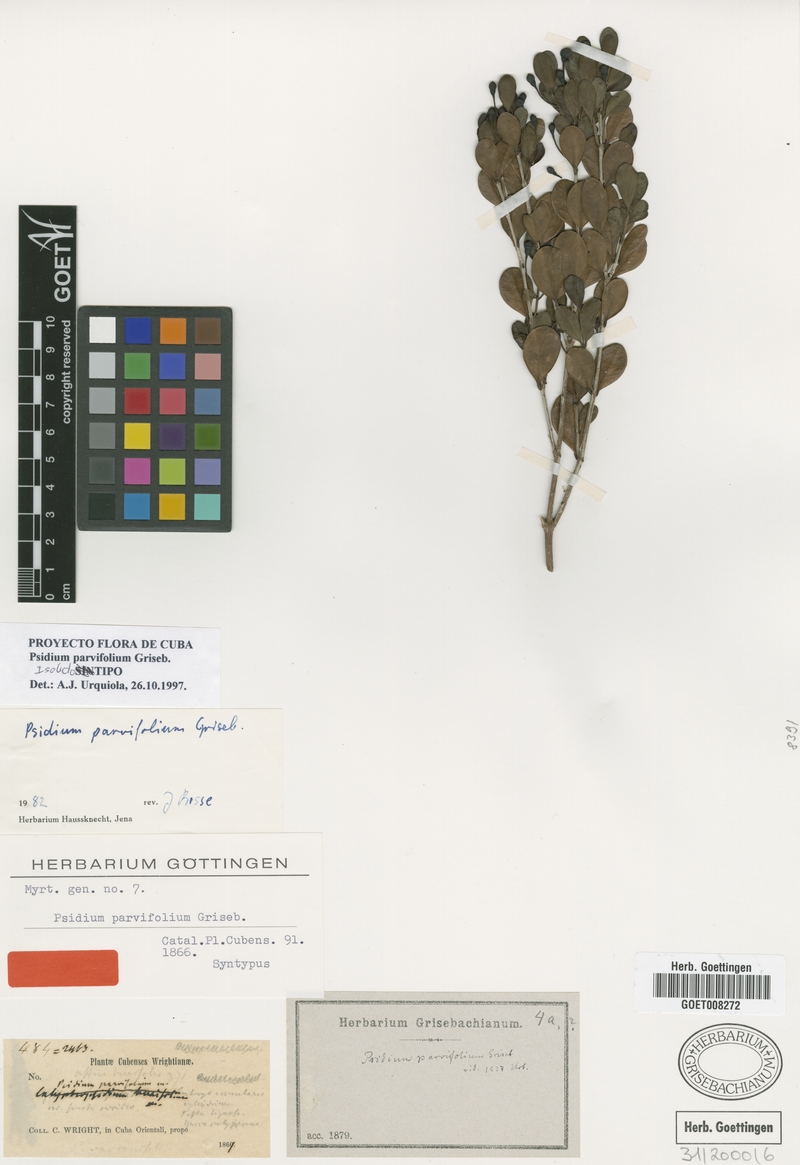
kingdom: Plantae
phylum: Tracheophyta
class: Magnoliopsida
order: Myrtales
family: Myrtaceae
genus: Psidium
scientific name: Psidium parvifolium
